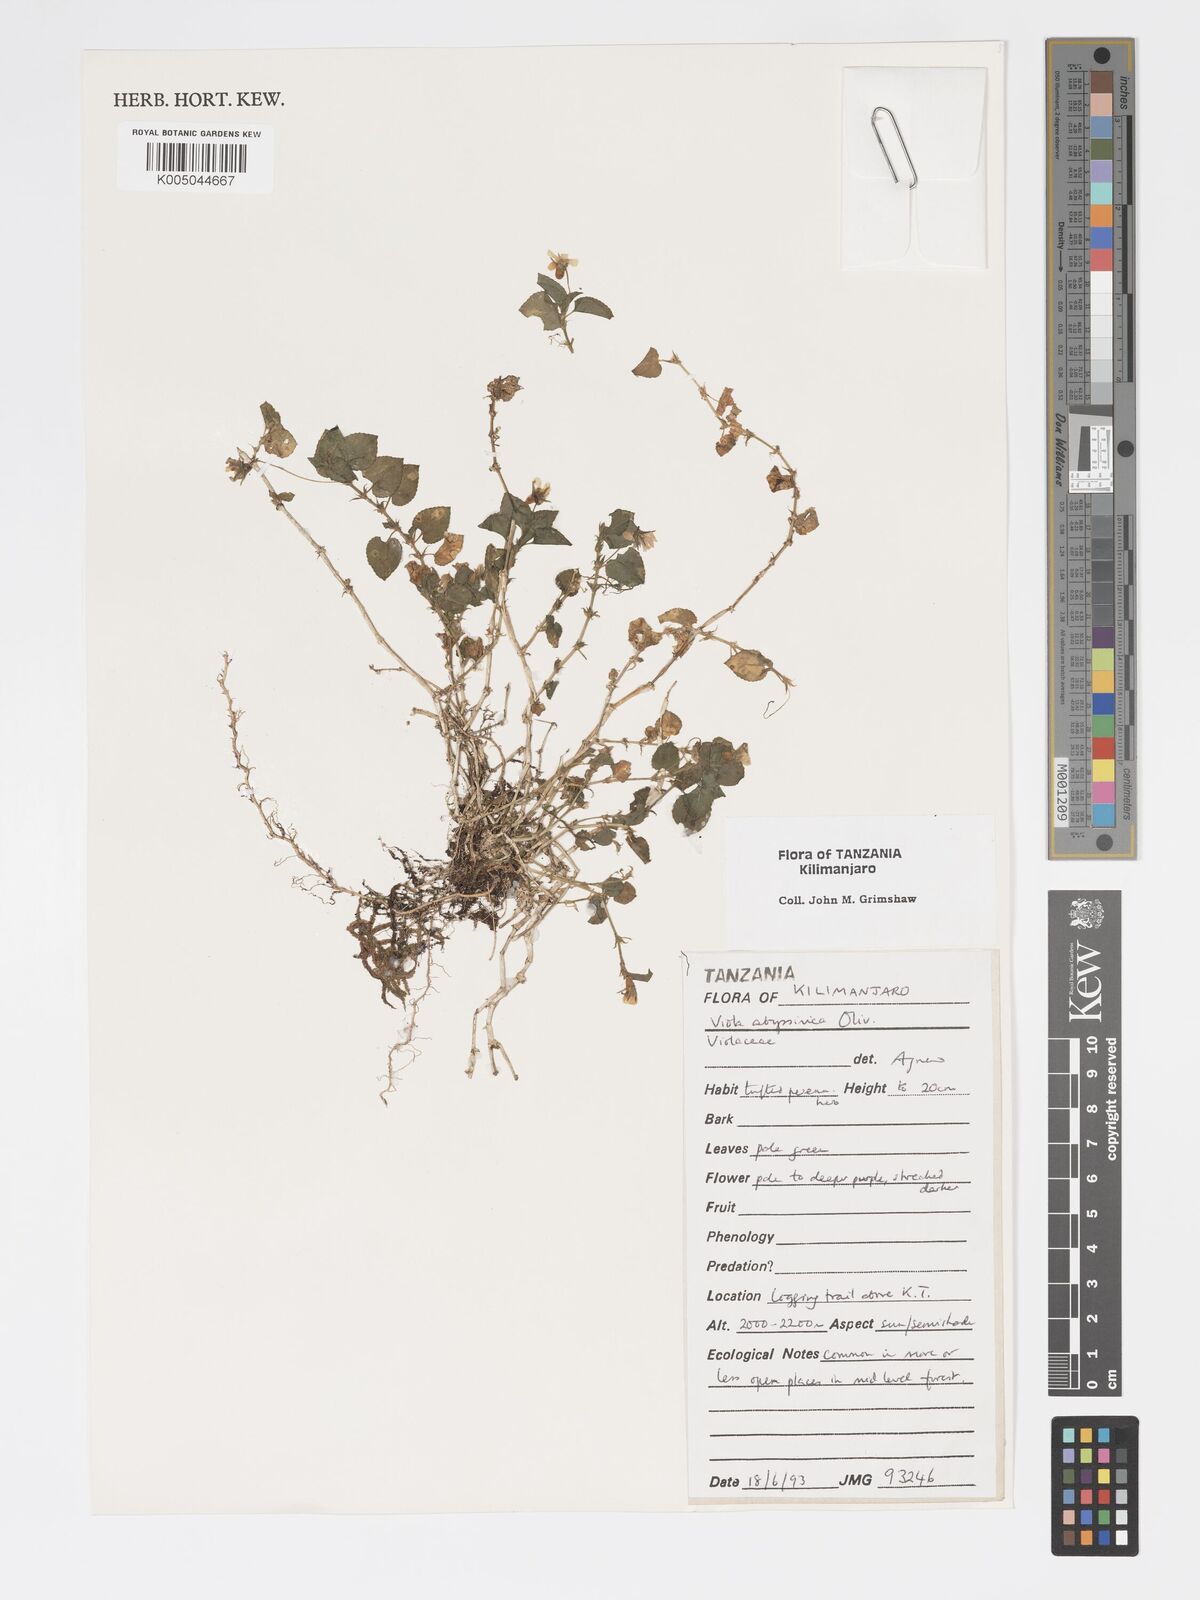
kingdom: Plantae
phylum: Tracheophyta
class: Magnoliopsida
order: Malpighiales
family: Violaceae
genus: Viola
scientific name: Viola abyssinica
